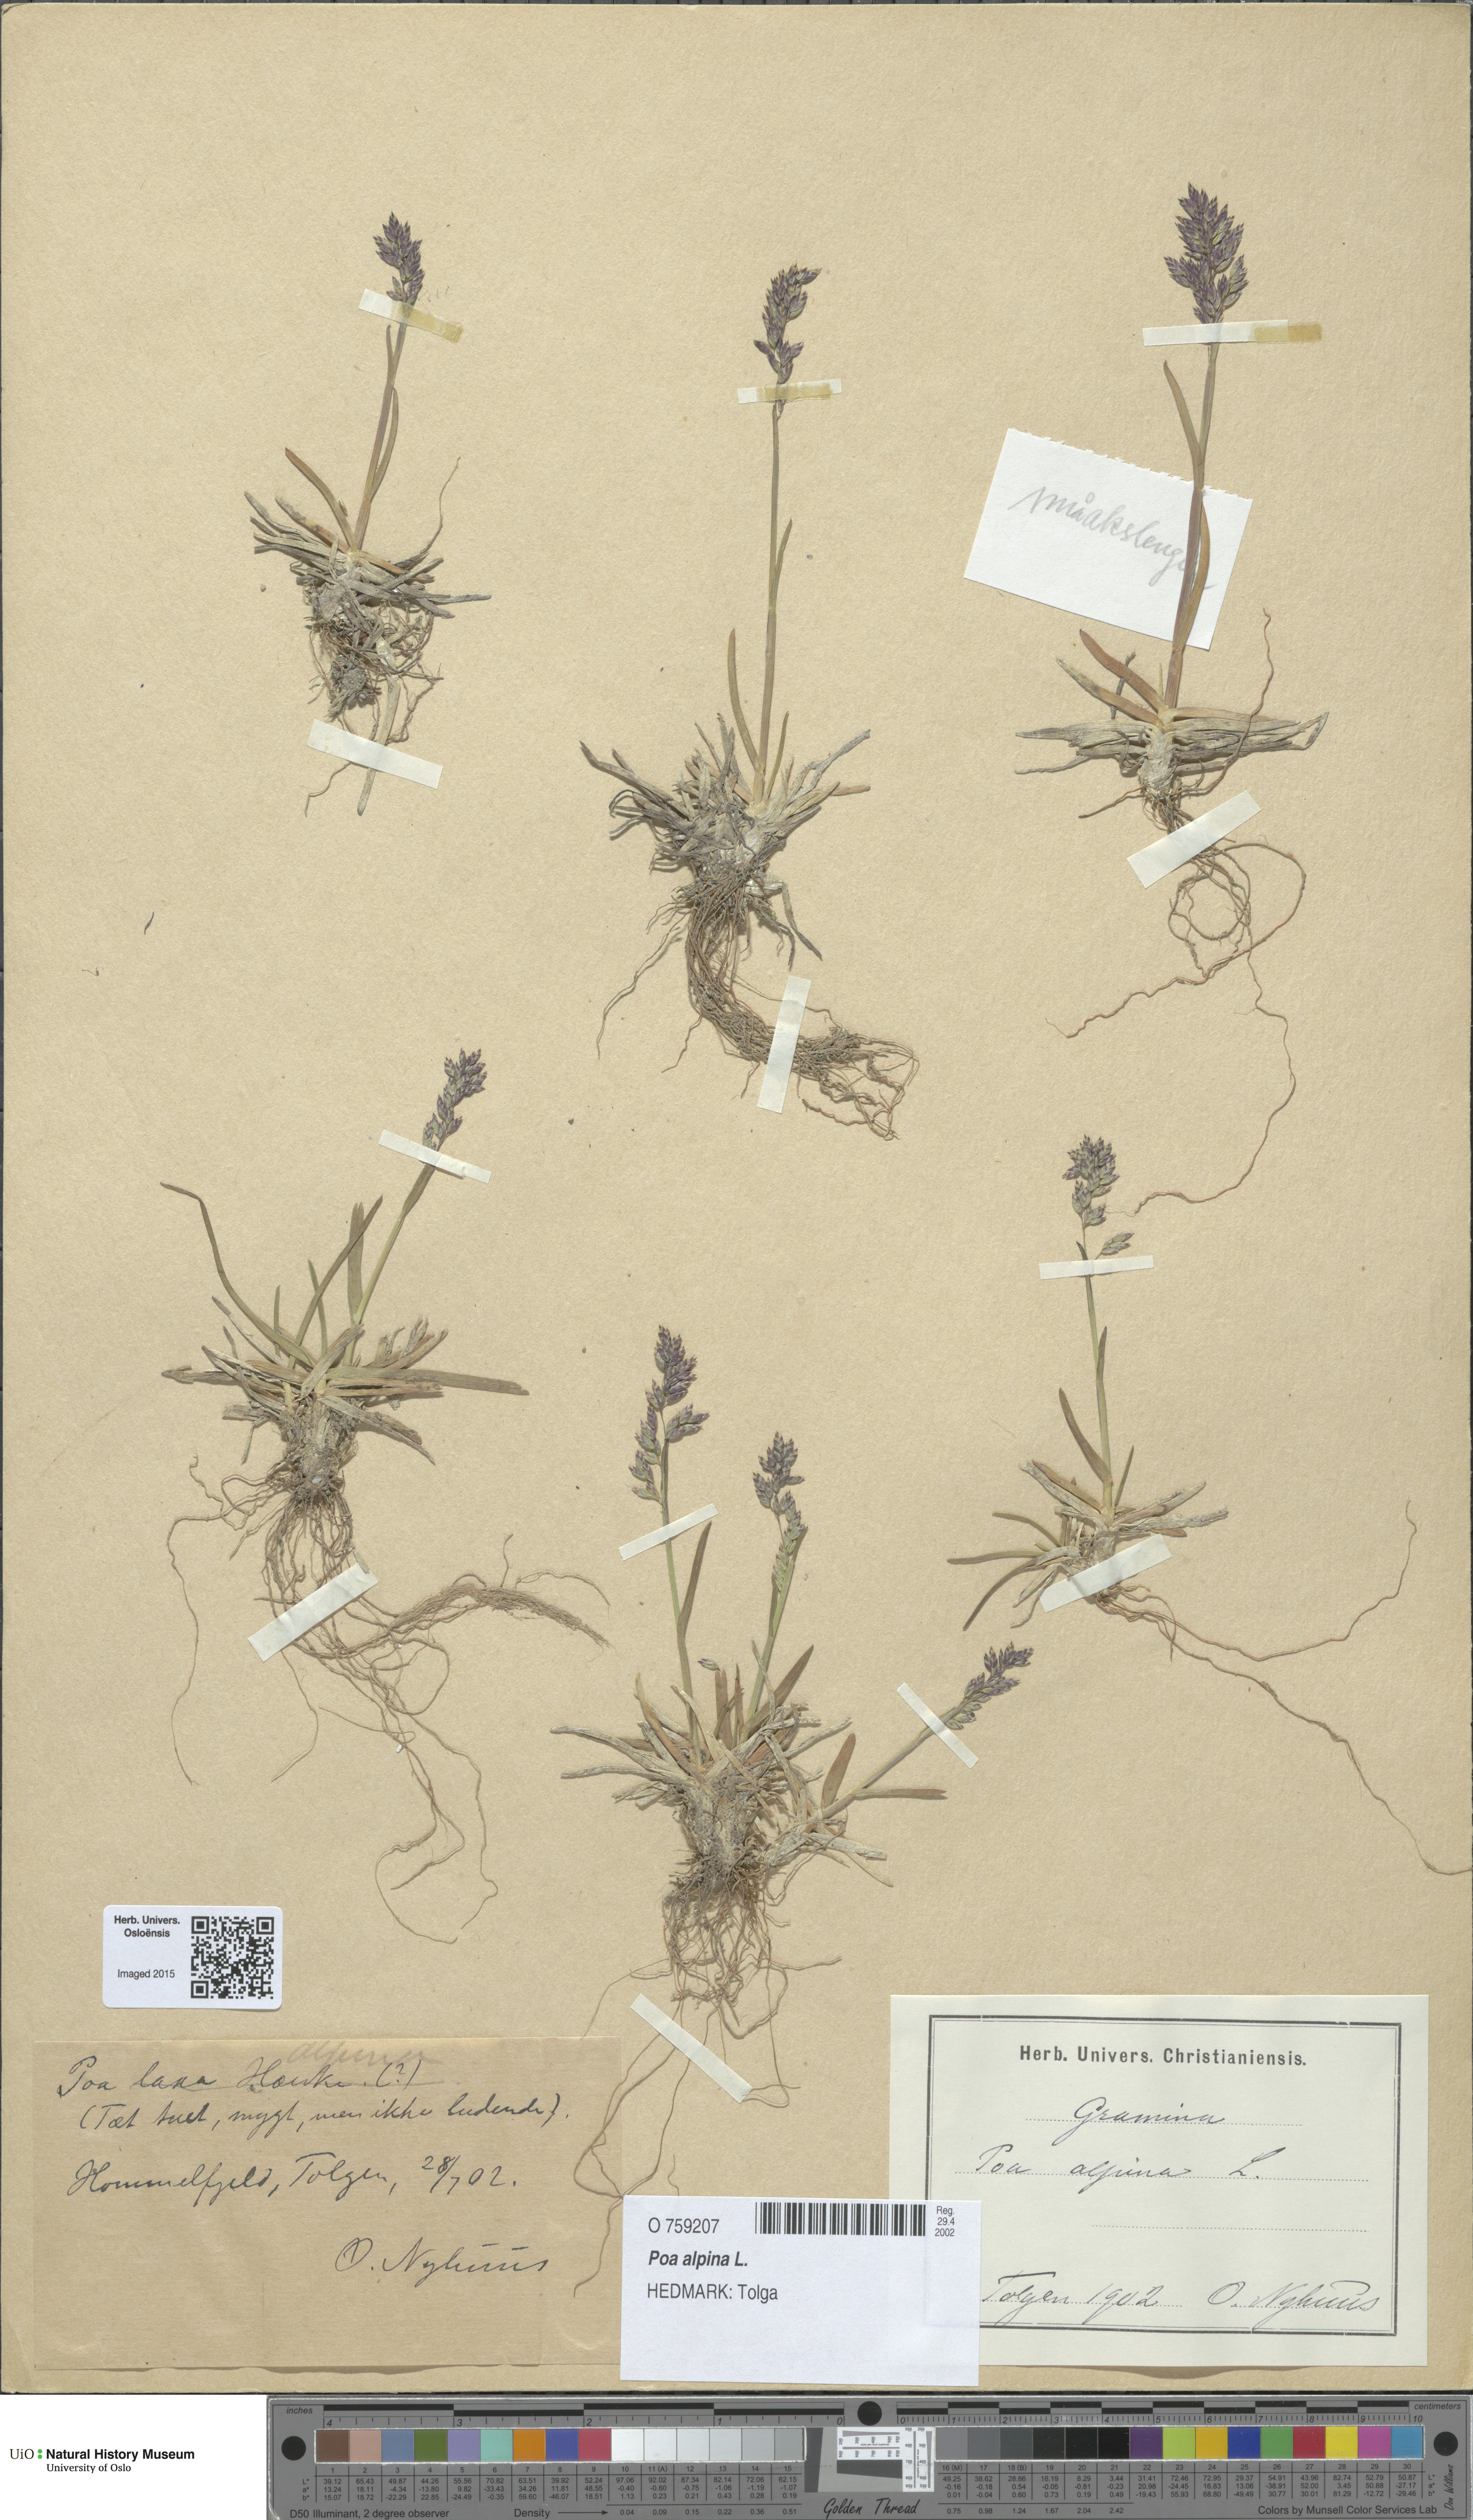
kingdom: Plantae
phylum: Tracheophyta
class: Liliopsida
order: Poales
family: Poaceae
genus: Poa
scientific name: Poa alpina
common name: Alpine bluegrass
